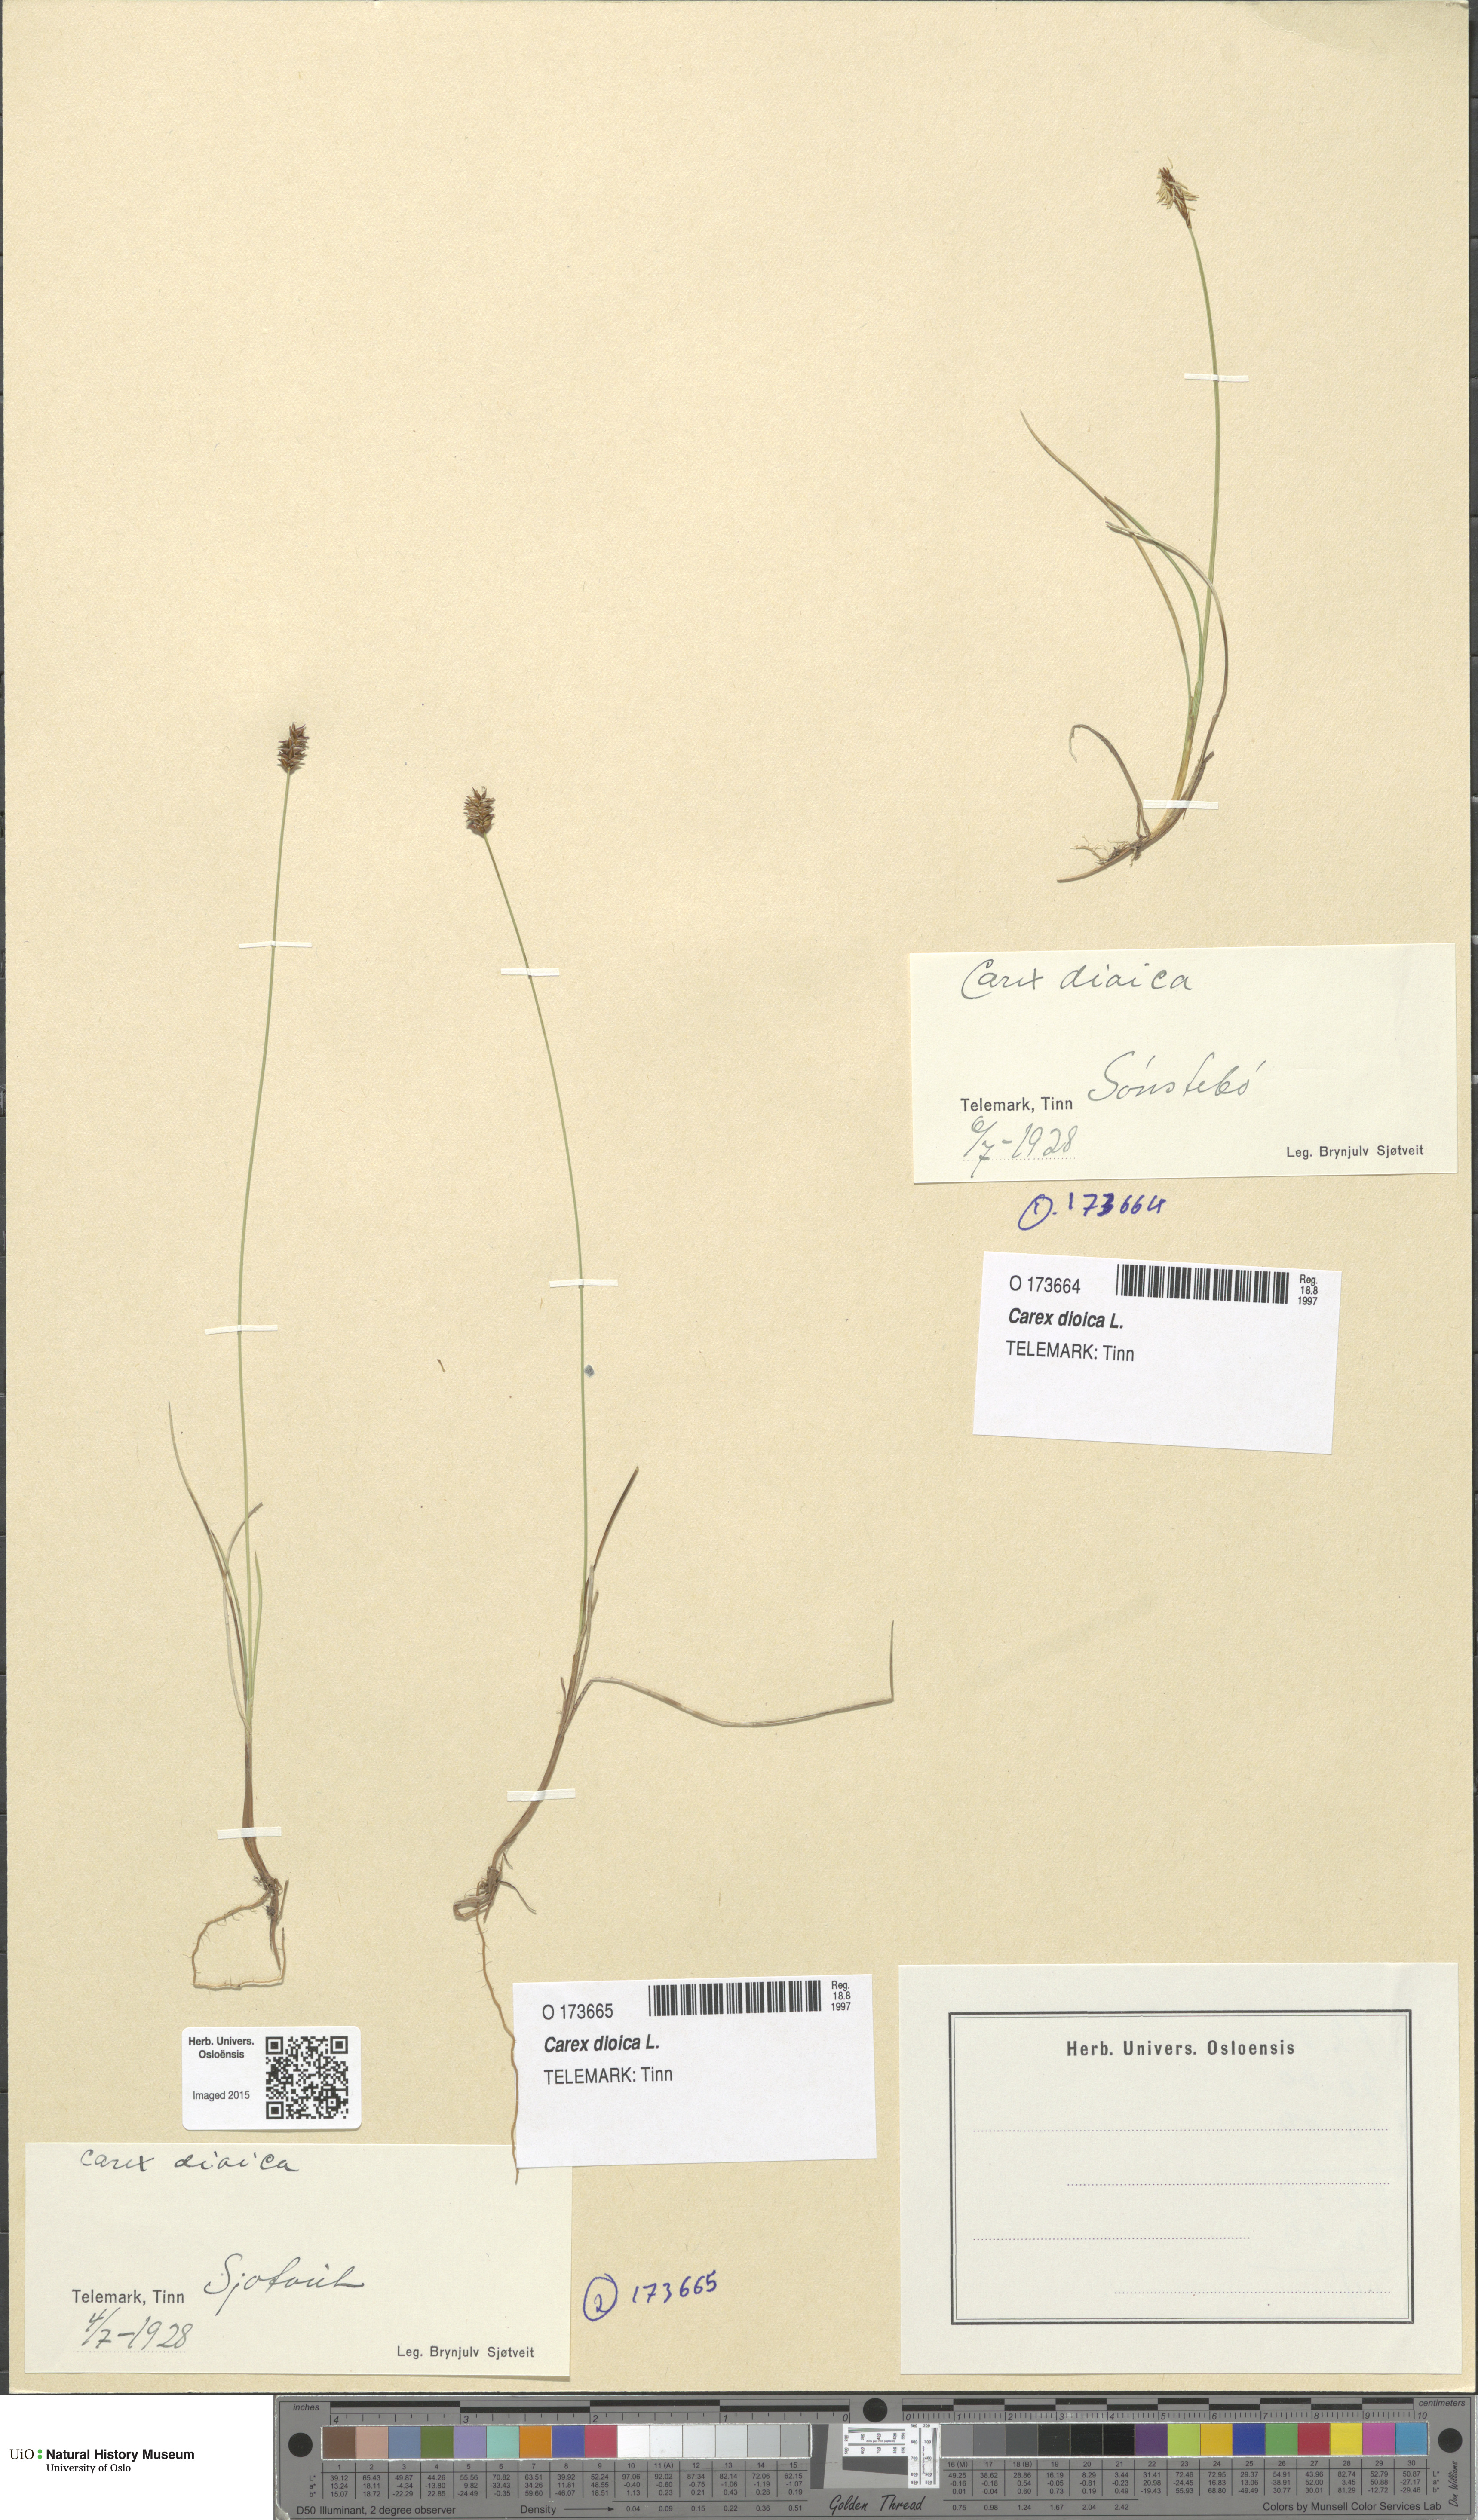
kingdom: Plantae
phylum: Tracheophyta
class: Liliopsida
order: Poales
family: Cyperaceae
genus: Carex
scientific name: Carex dioica
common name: Dioecious sedge
